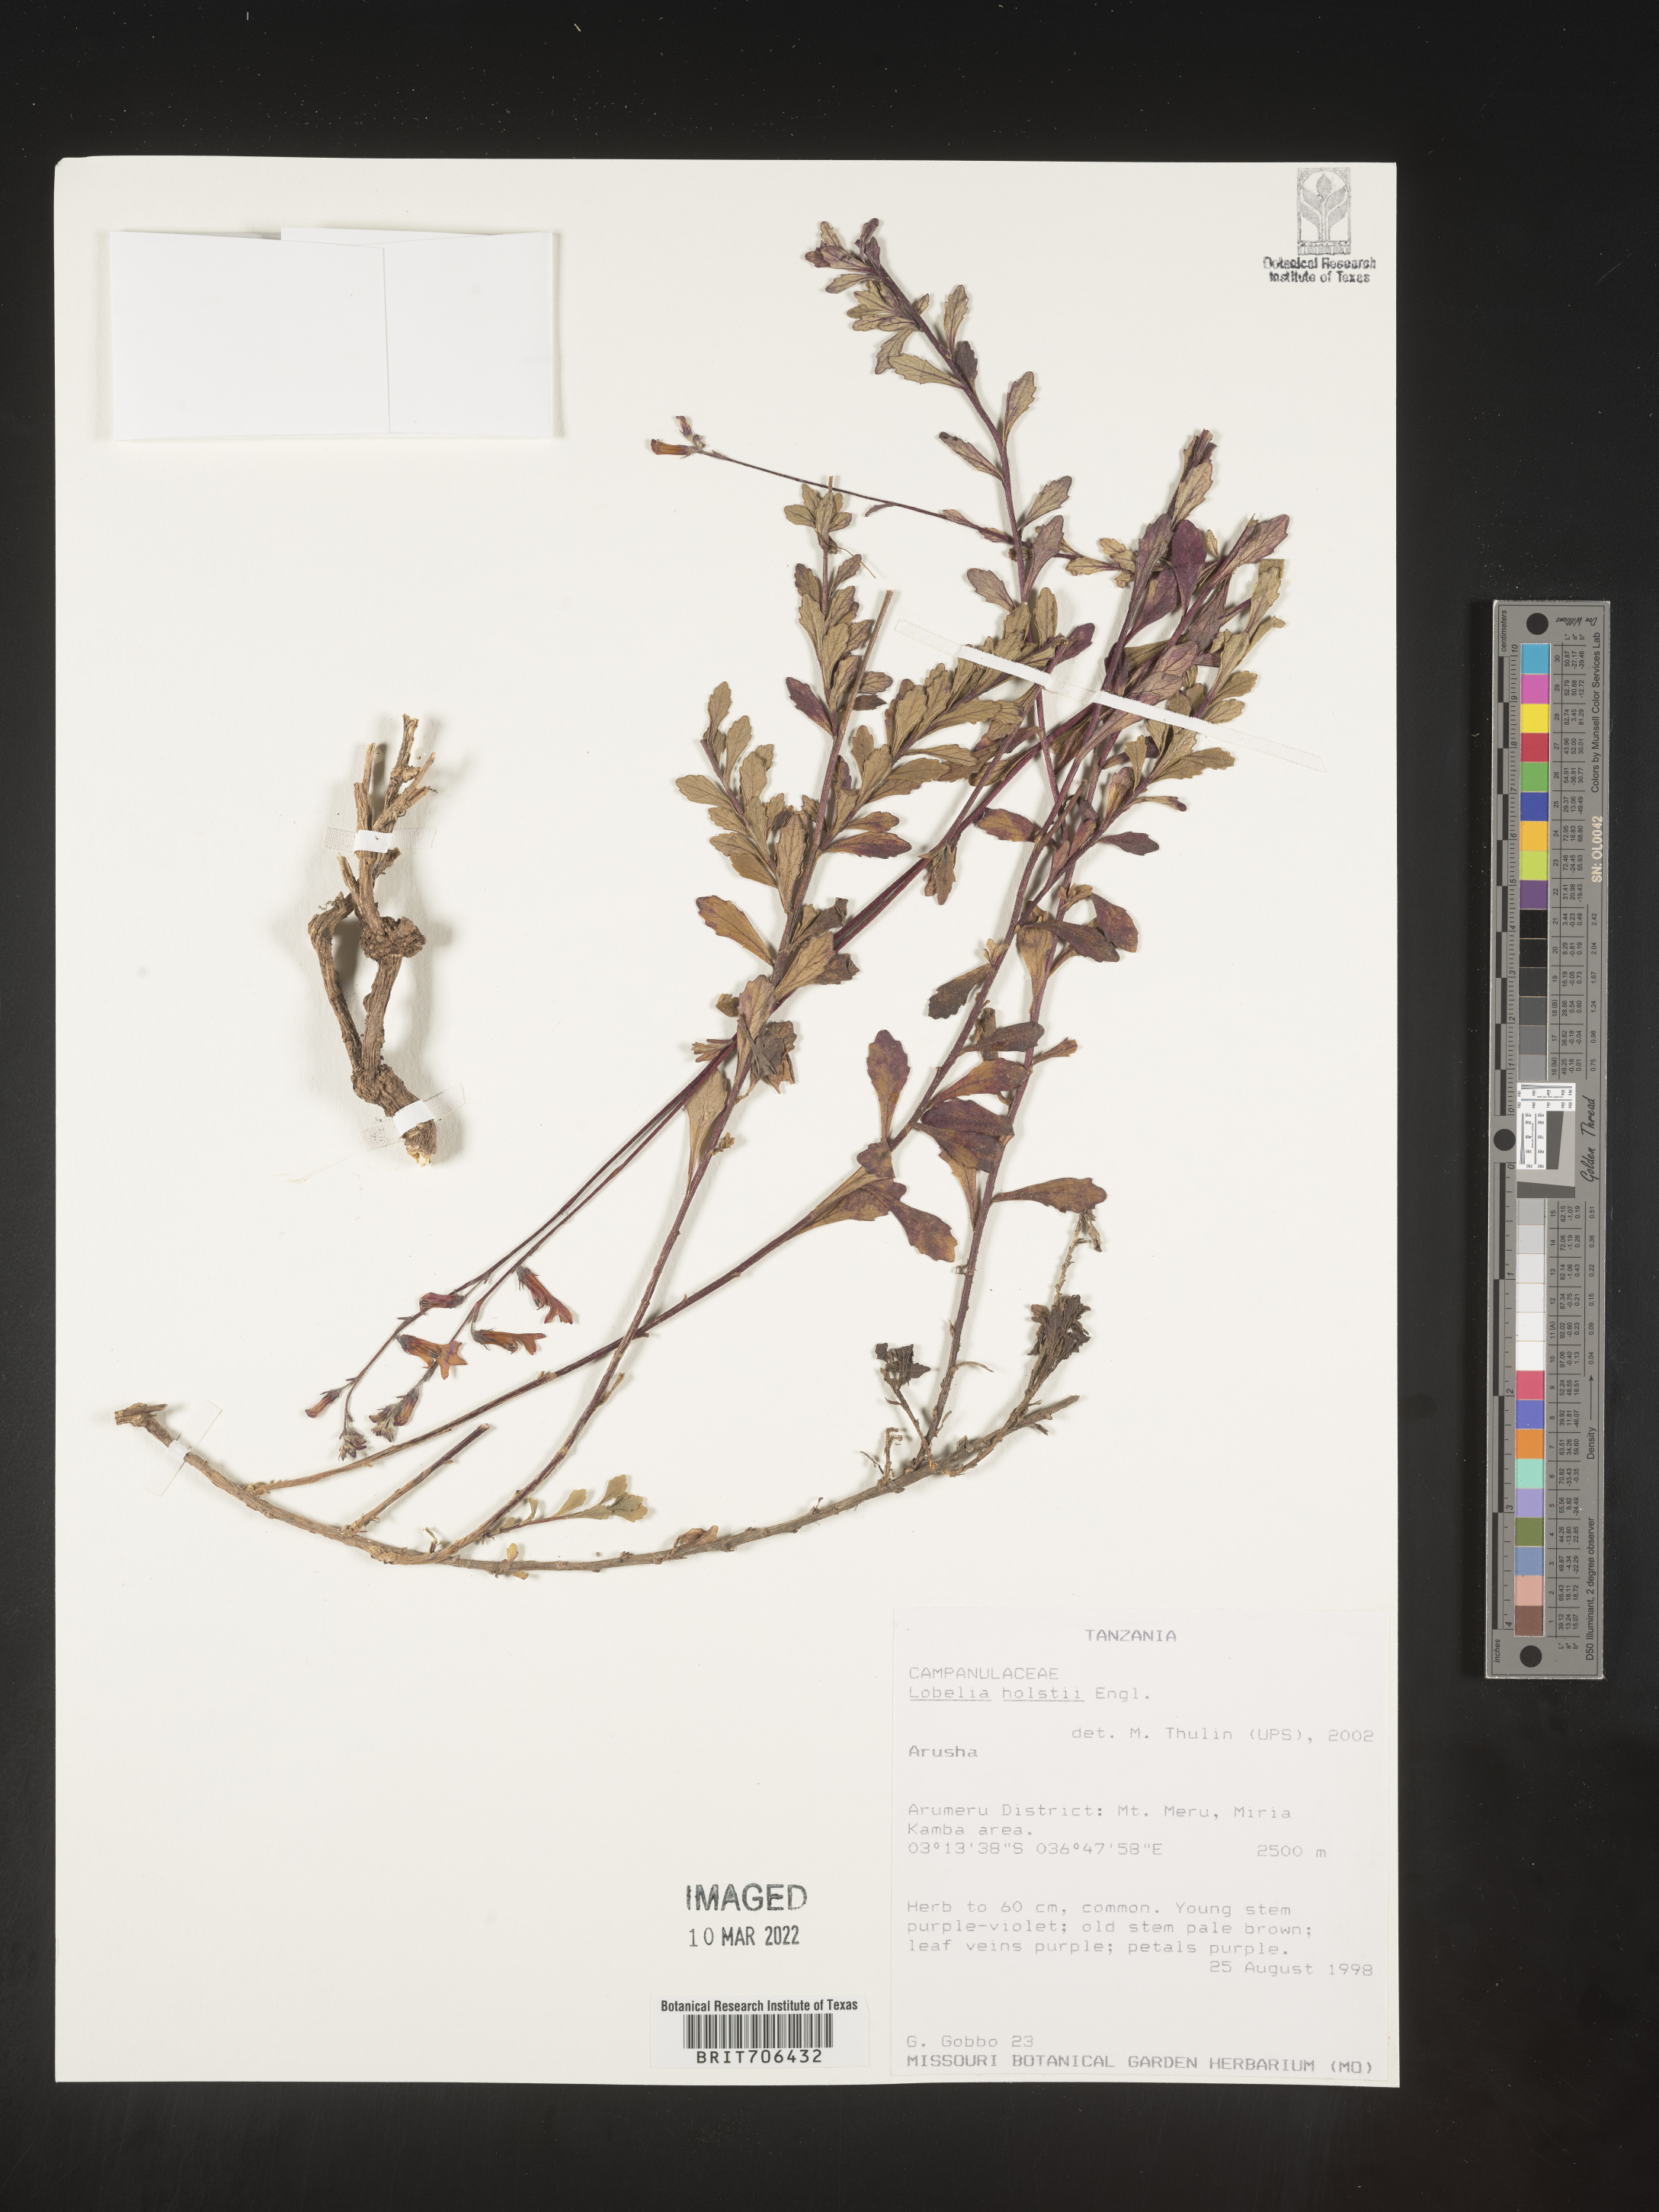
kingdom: Plantae
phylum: Tracheophyta
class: Magnoliopsida
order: Asterales
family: Campanulaceae
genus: Lobelia
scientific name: Lobelia
